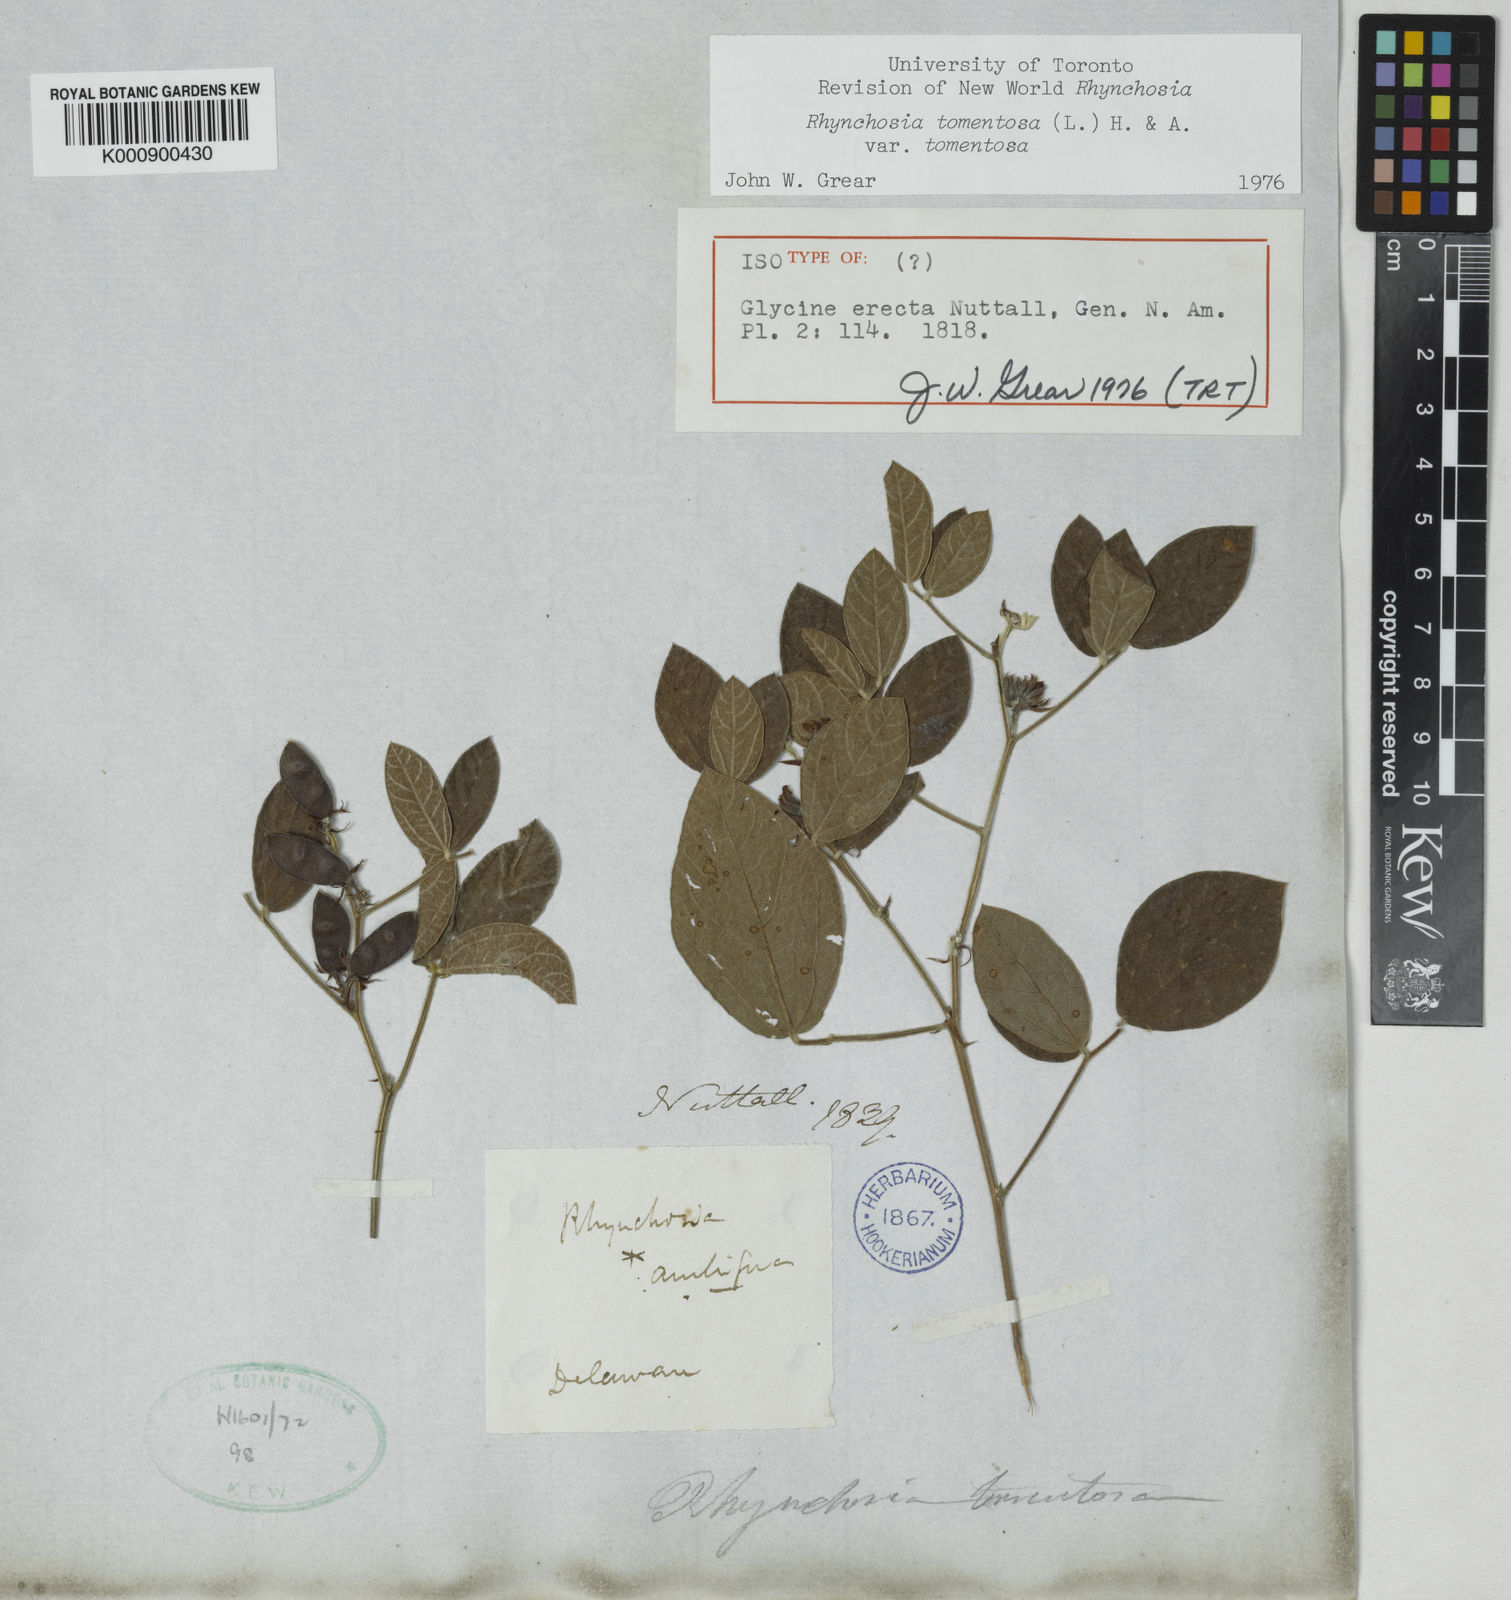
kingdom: Plantae
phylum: Tracheophyta
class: Magnoliopsida
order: Fabales
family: Fabaceae
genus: Rhynchosia
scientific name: Rhynchosia tomentosa
